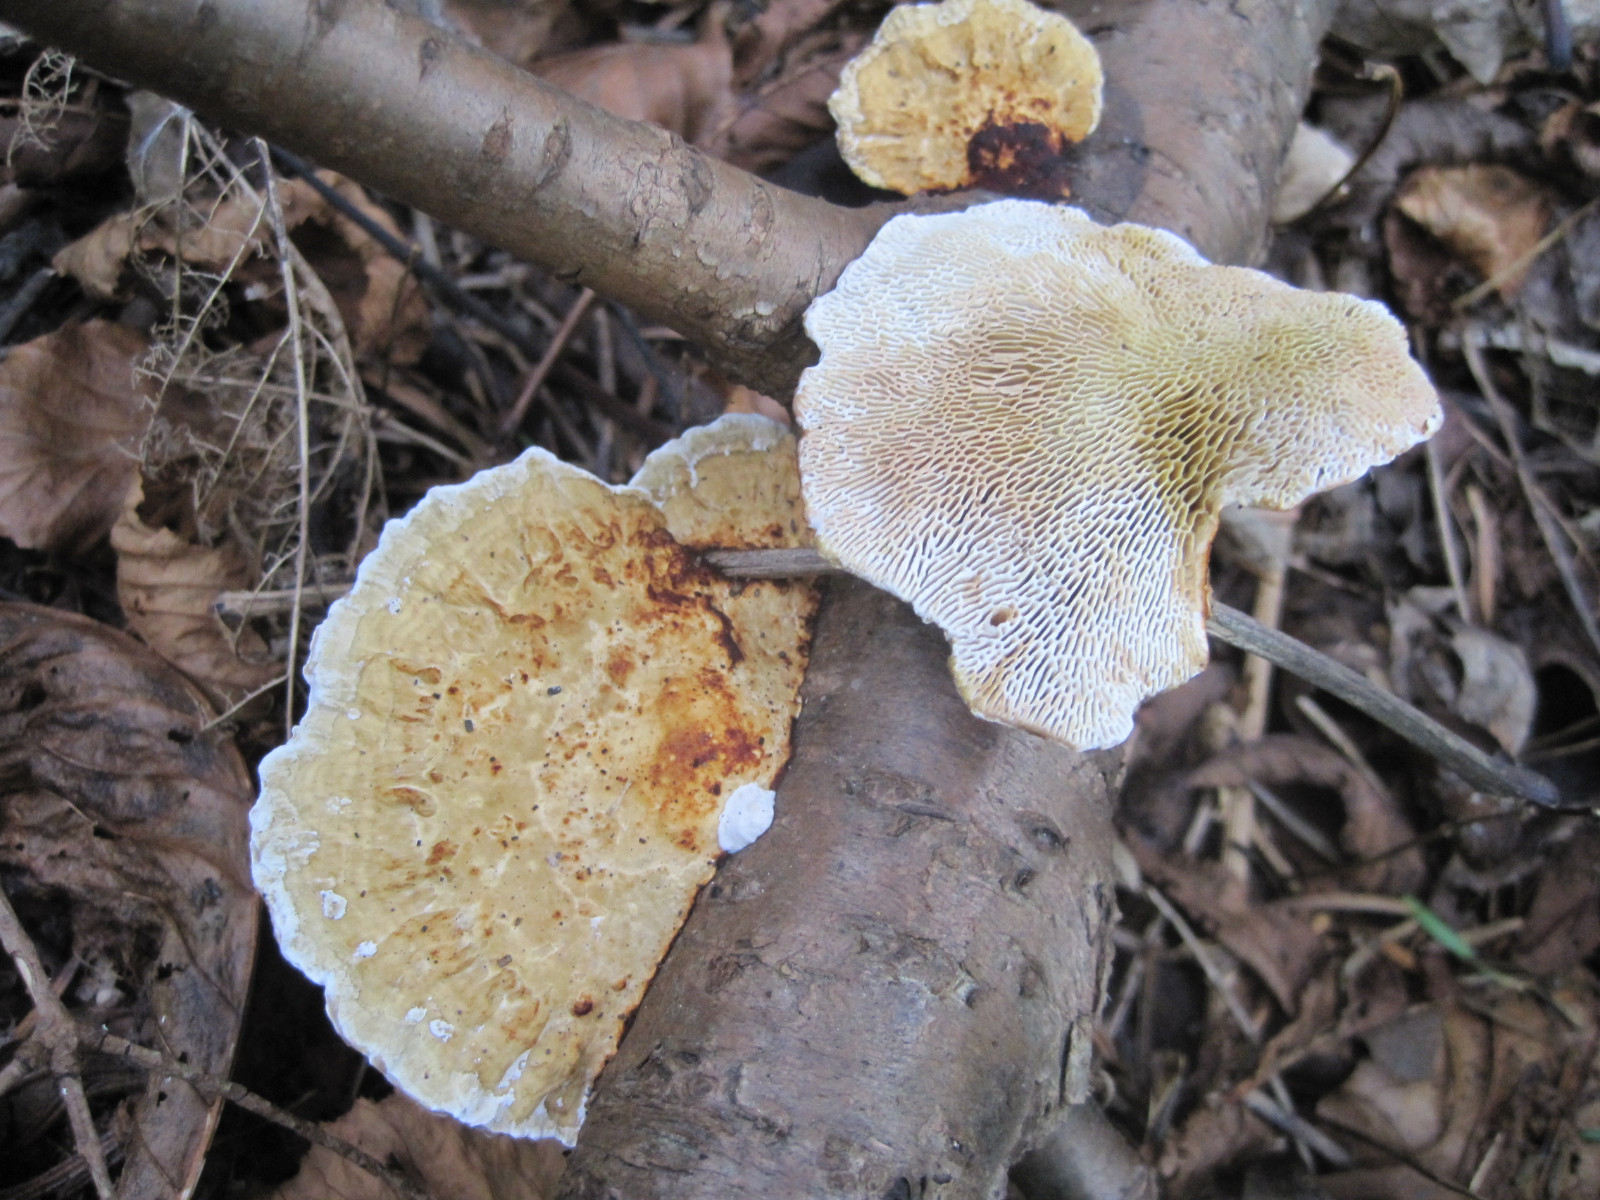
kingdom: Fungi
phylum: Basidiomycota
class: Agaricomycetes
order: Polyporales
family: Polyporaceae
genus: Daedaleopsis
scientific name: Daedaleopsis confragosa
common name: rødmende læderporesvamp
